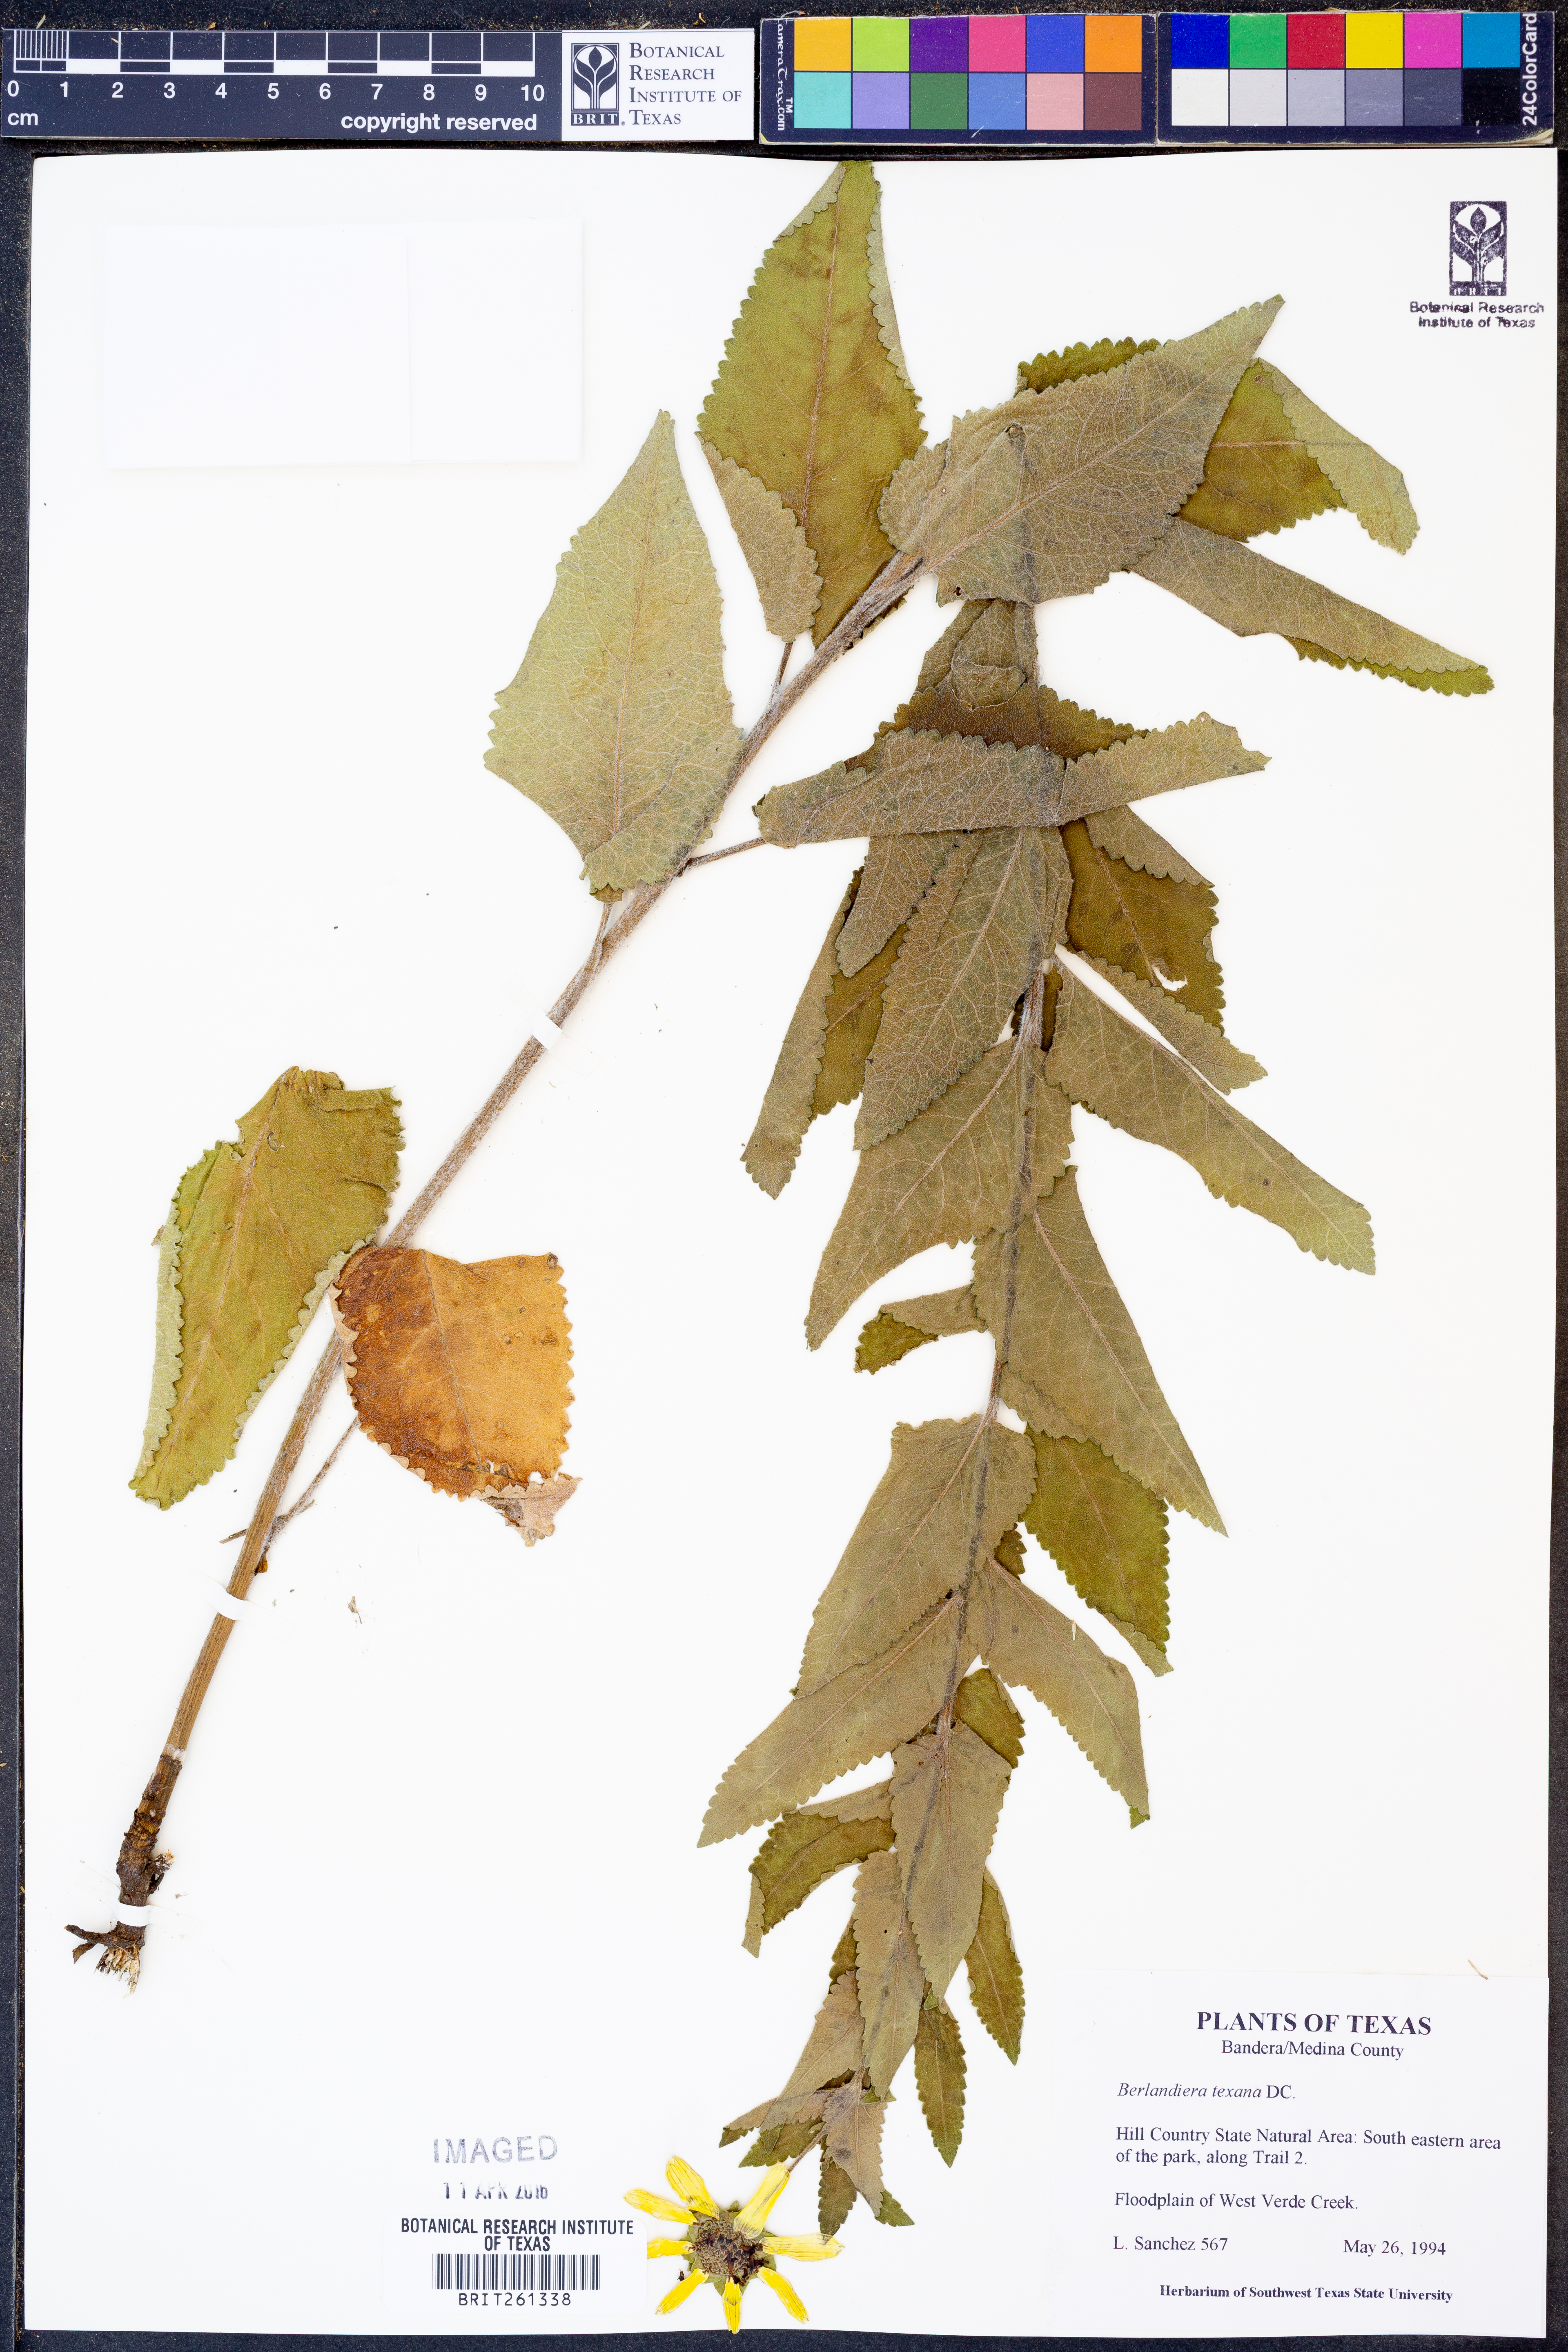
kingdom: Plantae
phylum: Tracheophyta
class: Magnoliopsida
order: Asterales
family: Asteraceae
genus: Berlandiera
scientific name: Berlandiera texana
